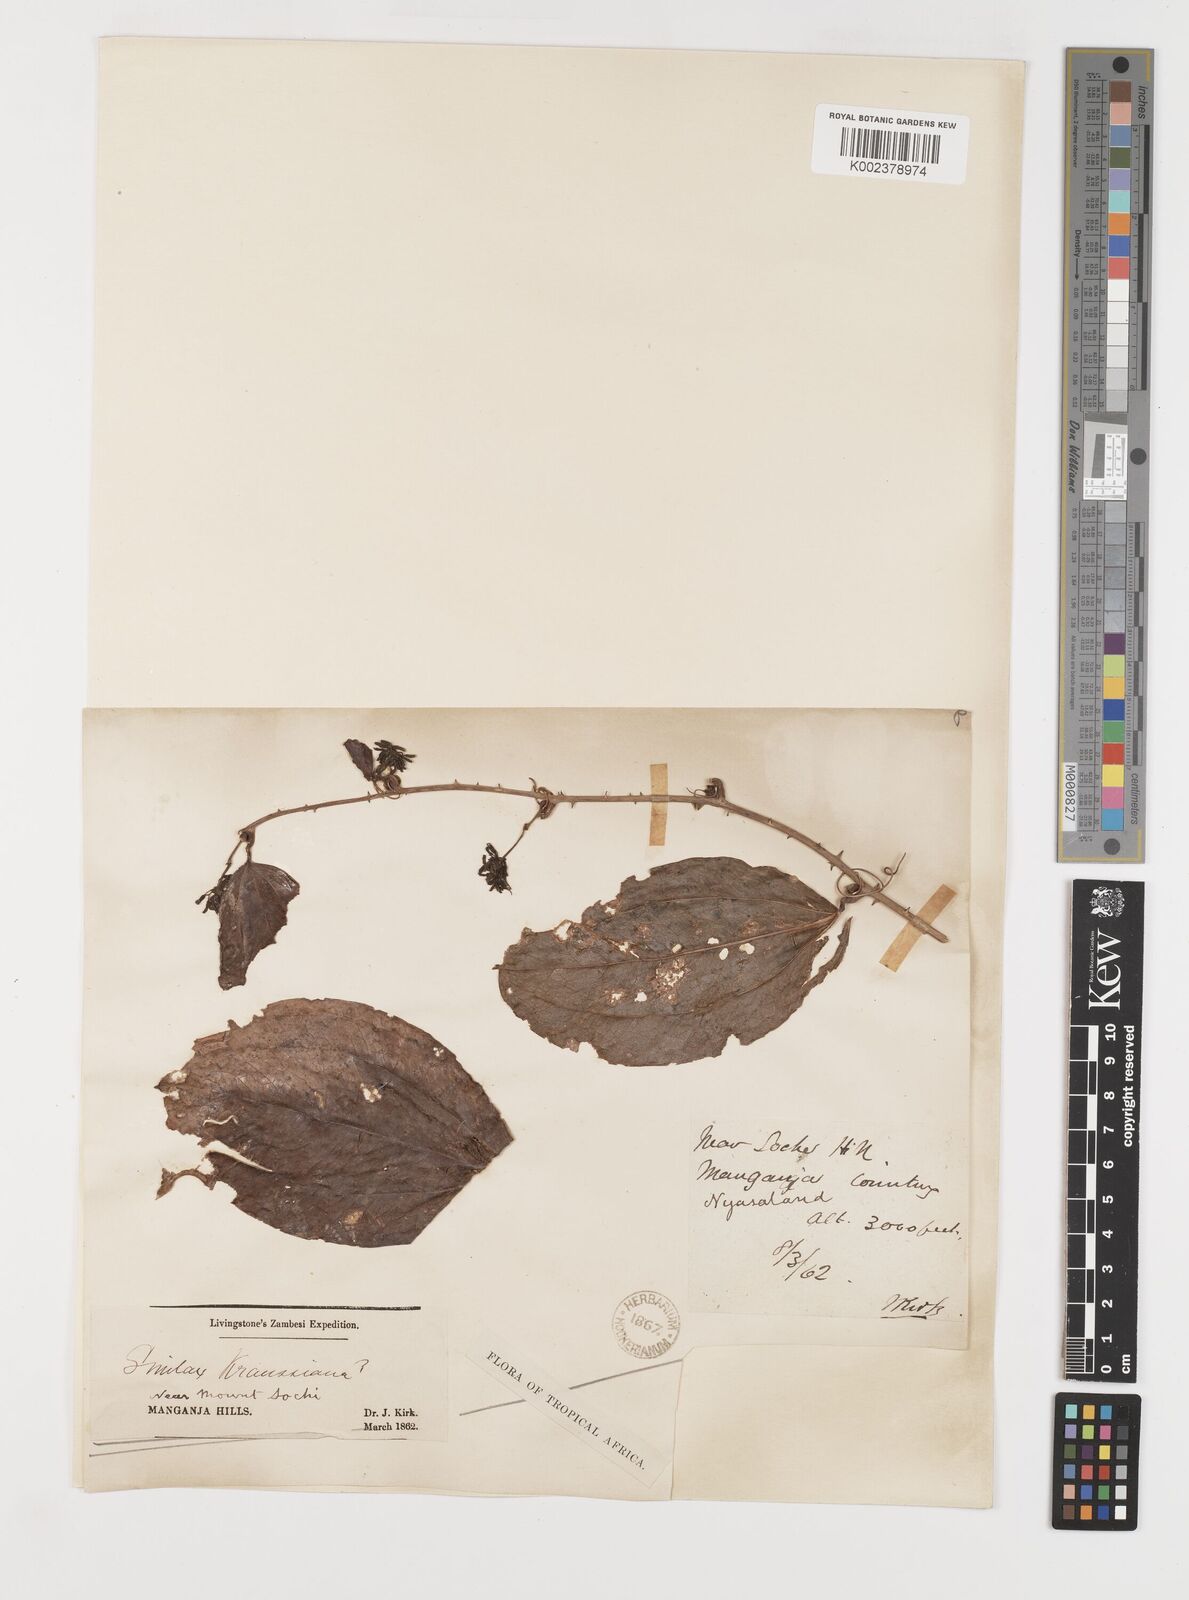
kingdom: Plantae
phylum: Tracheophyta
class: Liliopsida
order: Liliales
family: Smilacaceae
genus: Smilax
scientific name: Smilax anceps
